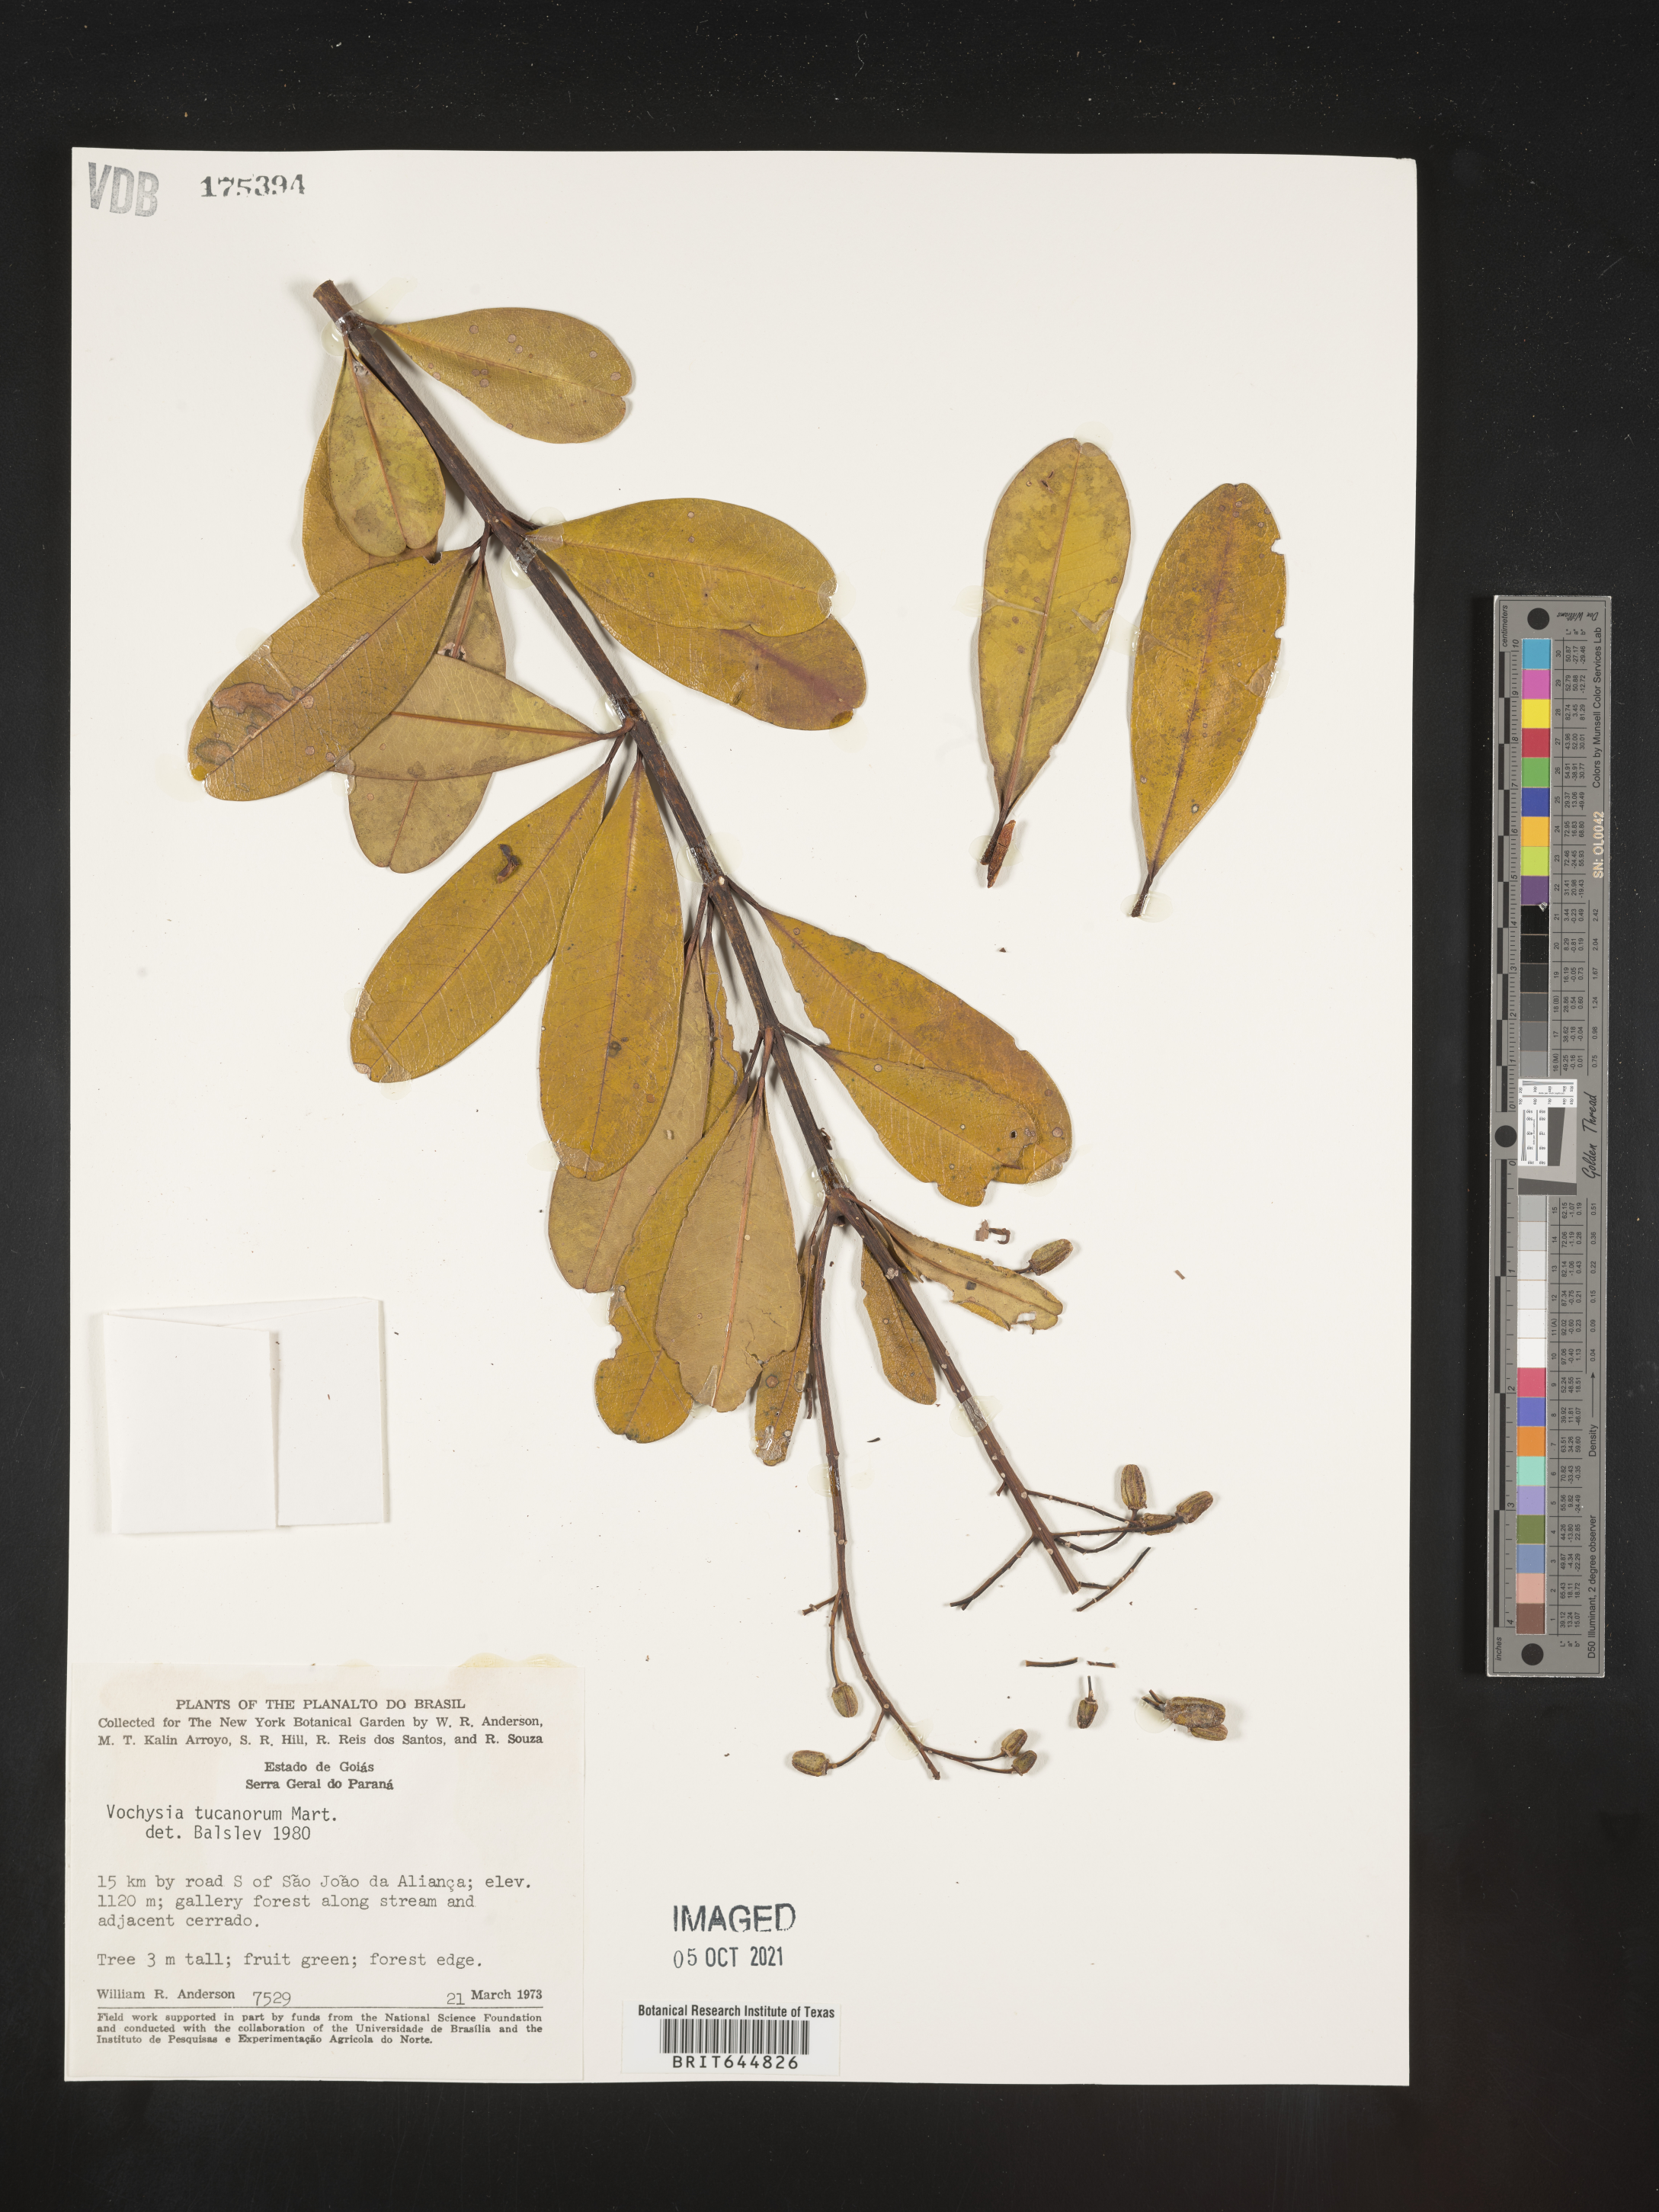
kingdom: Plantae
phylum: Tracheophyta
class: Magnoliopsida
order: Myrtales
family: Vochysiaceae
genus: Vochysia
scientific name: Vochysia
